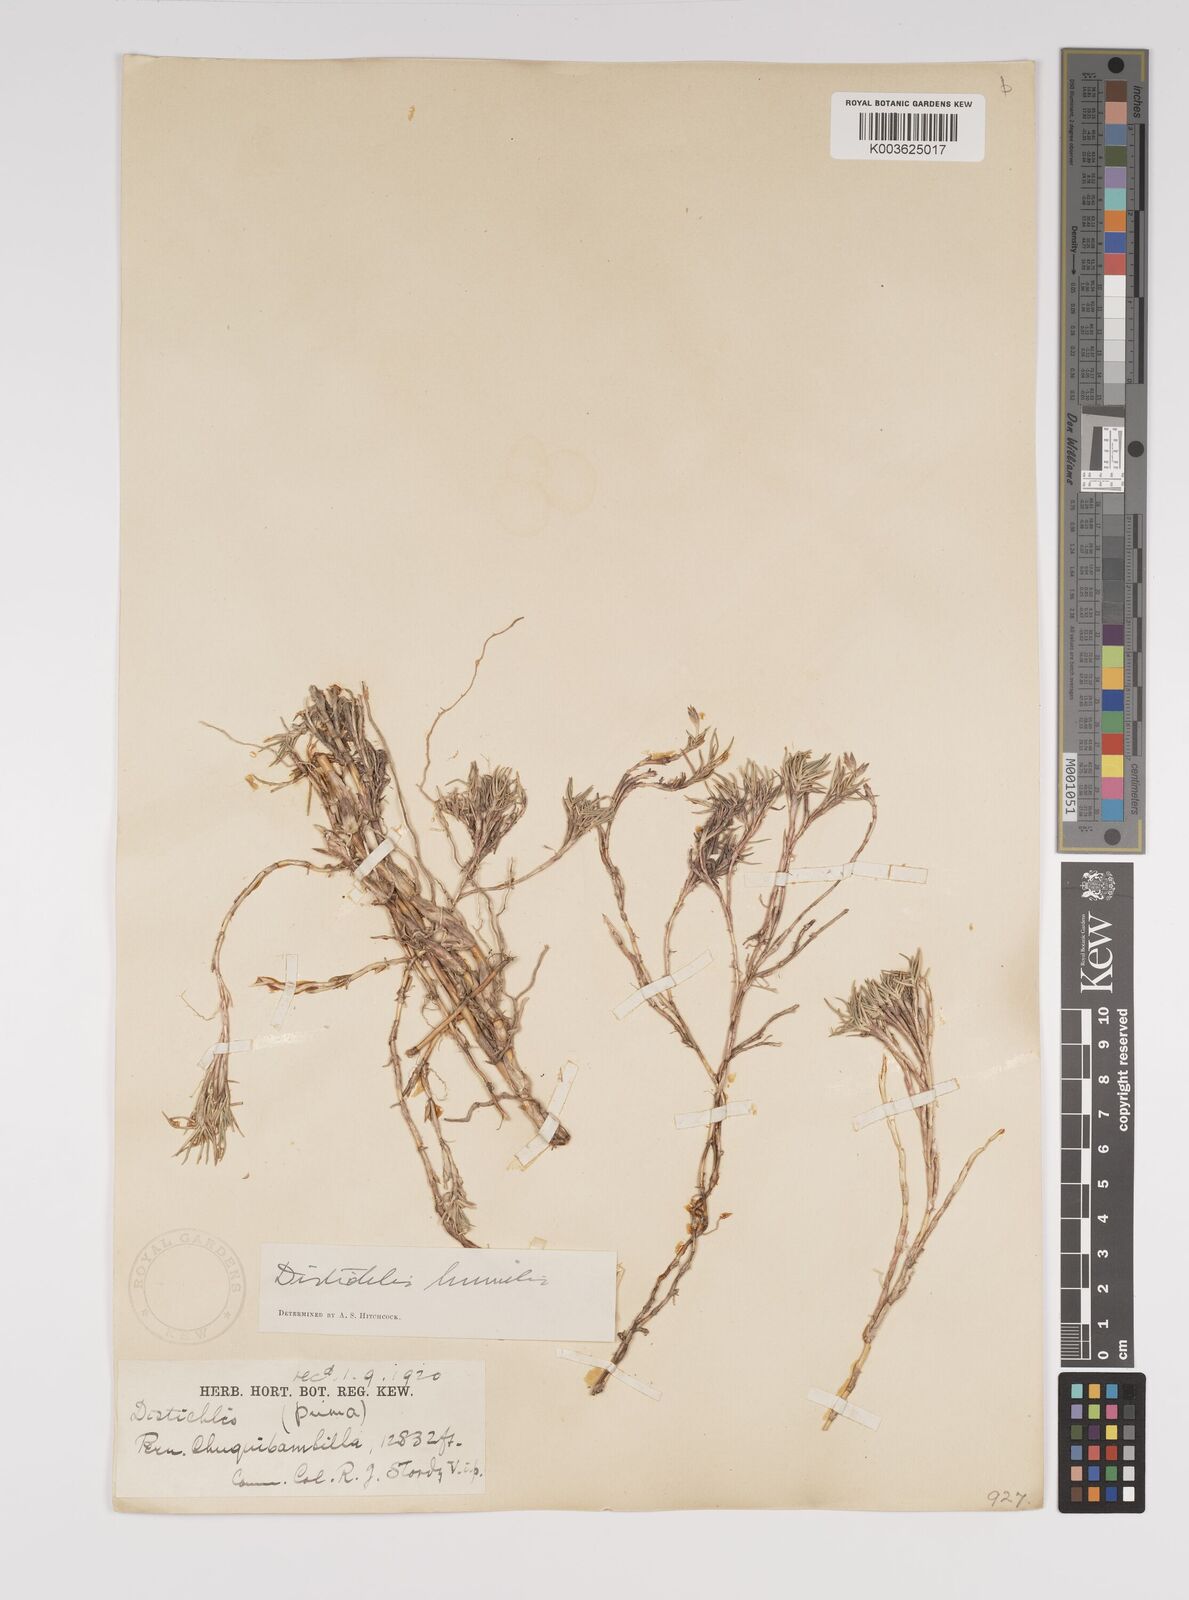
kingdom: Plantae
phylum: Tracheophyta
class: Liliopsida
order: Poales
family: Poaceae
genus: Distichlis
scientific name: Distichlis humilis
